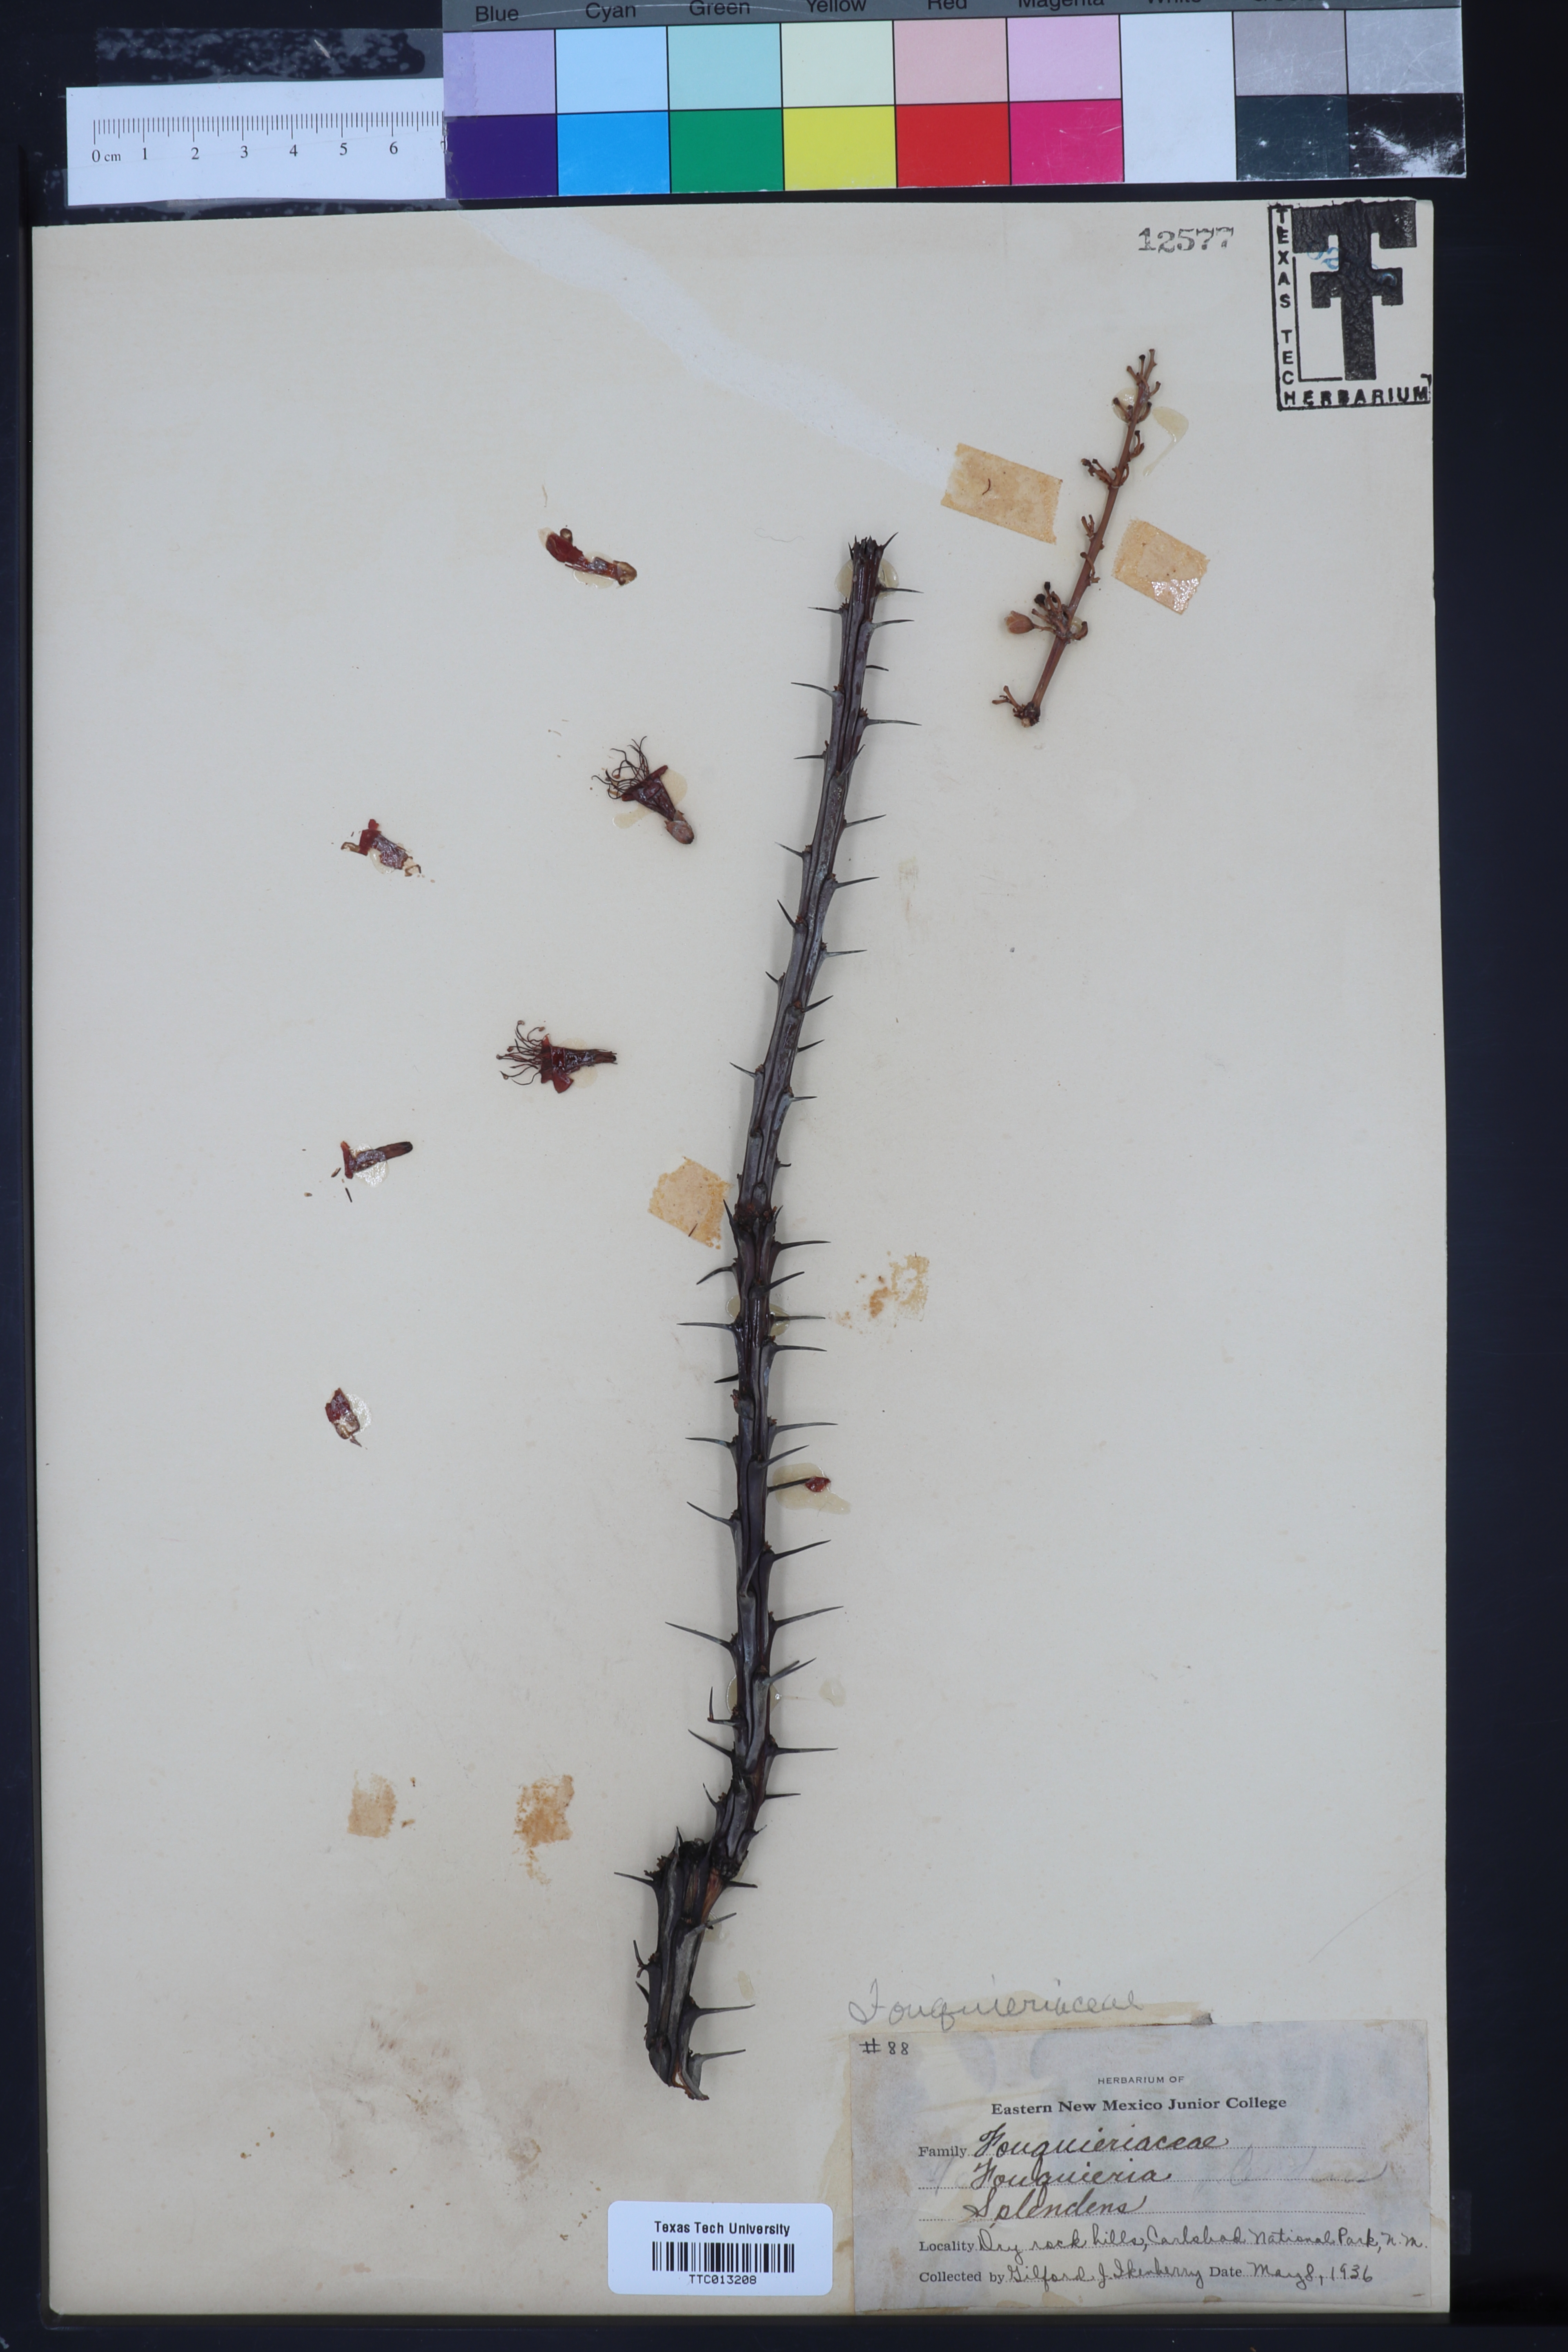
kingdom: Plantae
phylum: Tracheophyta
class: Magnoliopsida
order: Ericales
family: Fouquieriaceae
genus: Fouquieria
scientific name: Fouquieria splendens
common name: Vine-cactus
